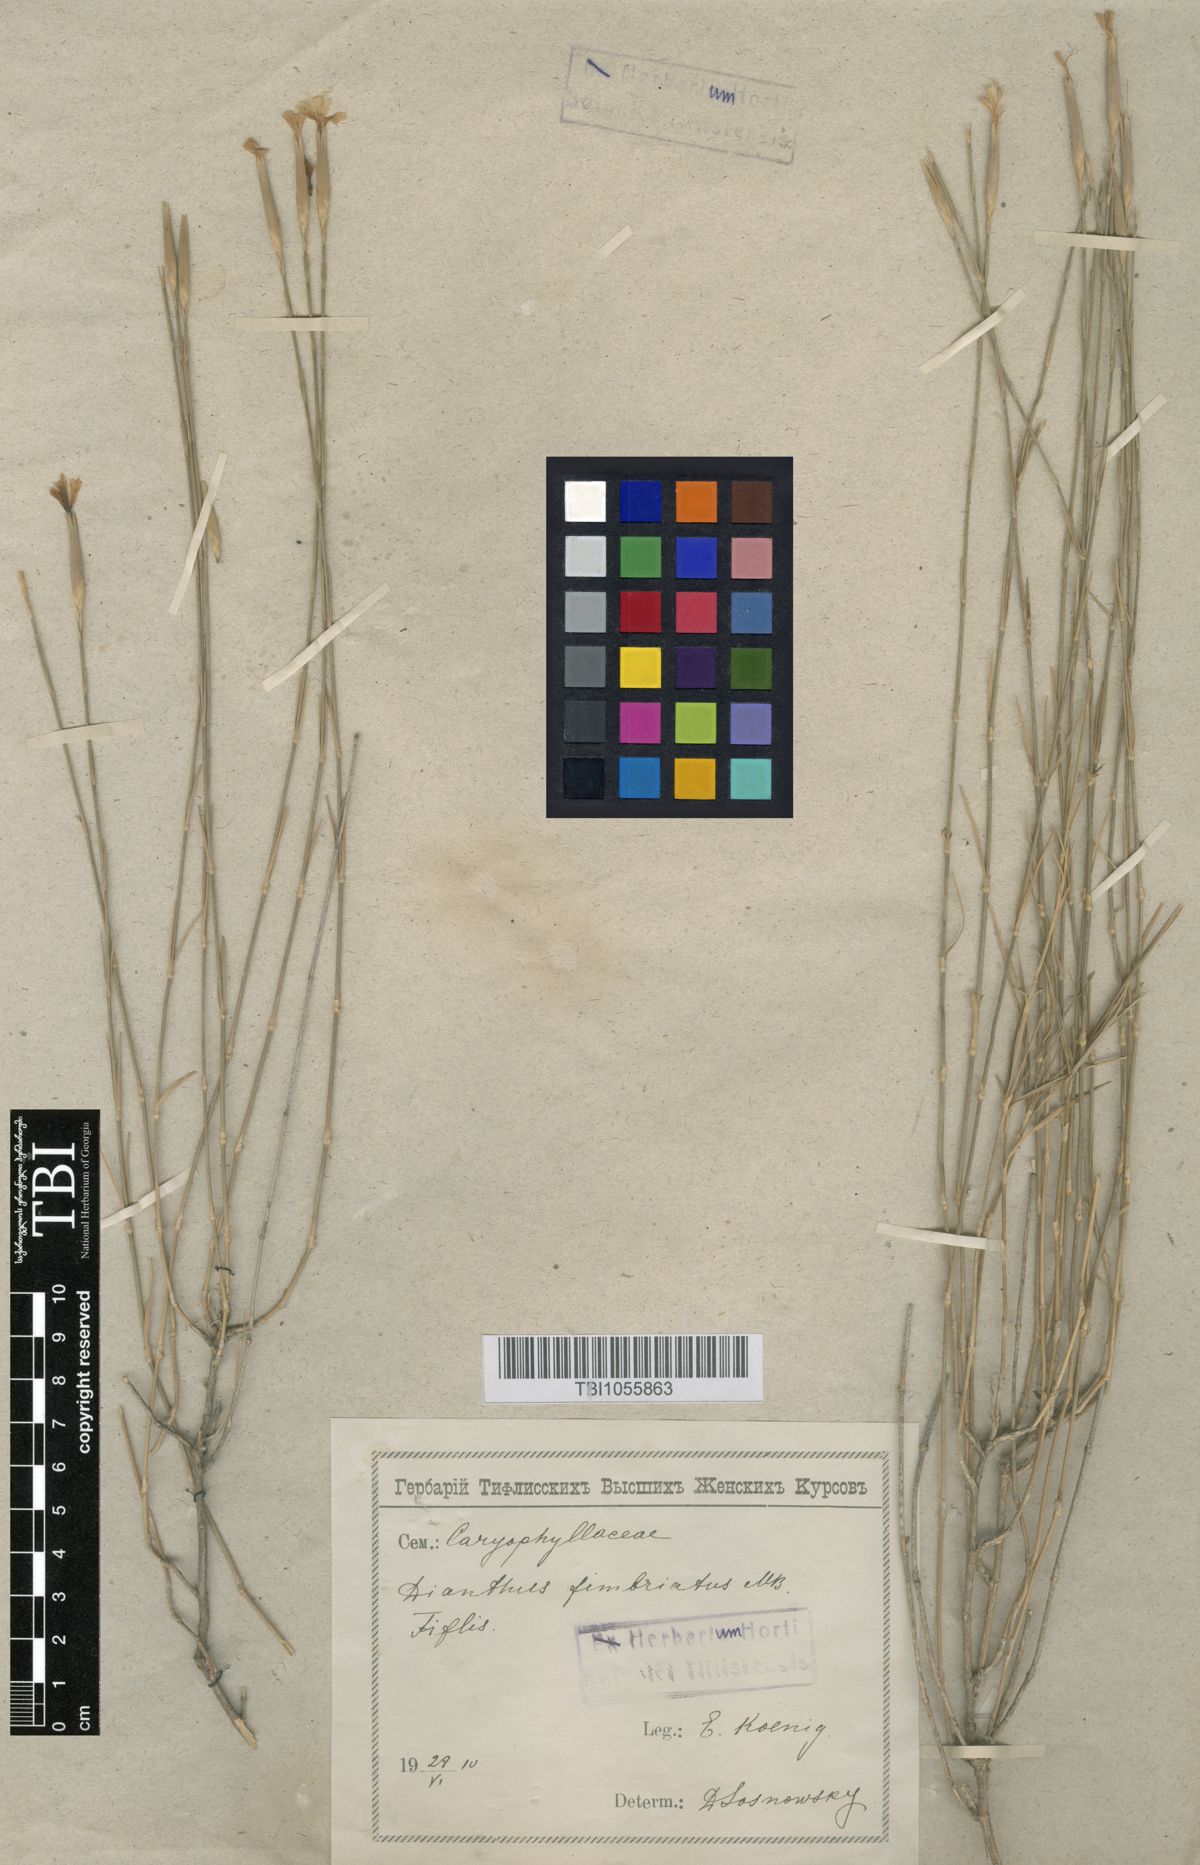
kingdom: Plantae
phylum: Tracheophyta
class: Magnoliopsida
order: Caryophyllales
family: Caryophyllaceae
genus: Dianthus
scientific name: Dianthus orientalis
